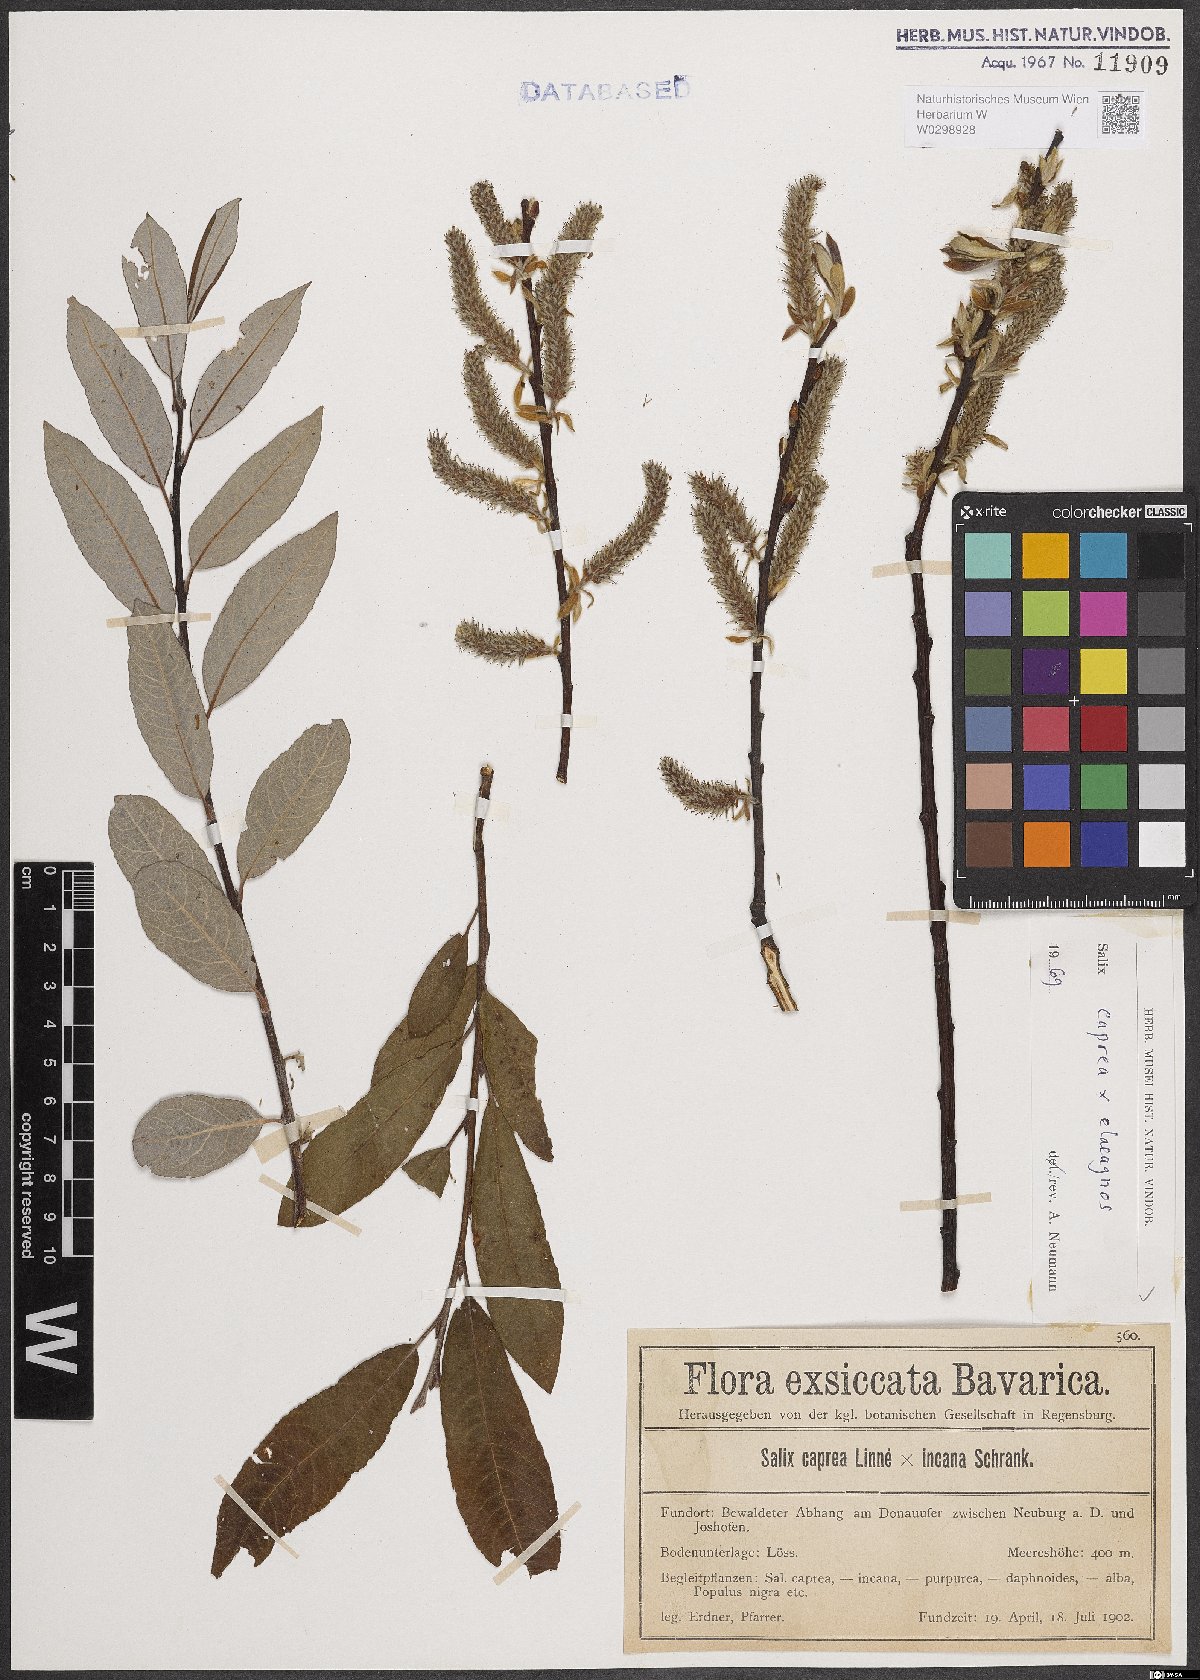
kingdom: Plantae
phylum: Tracheophyta
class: Magnoliopsida
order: Malpighiales
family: Salicaceae
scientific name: Salicaceae
